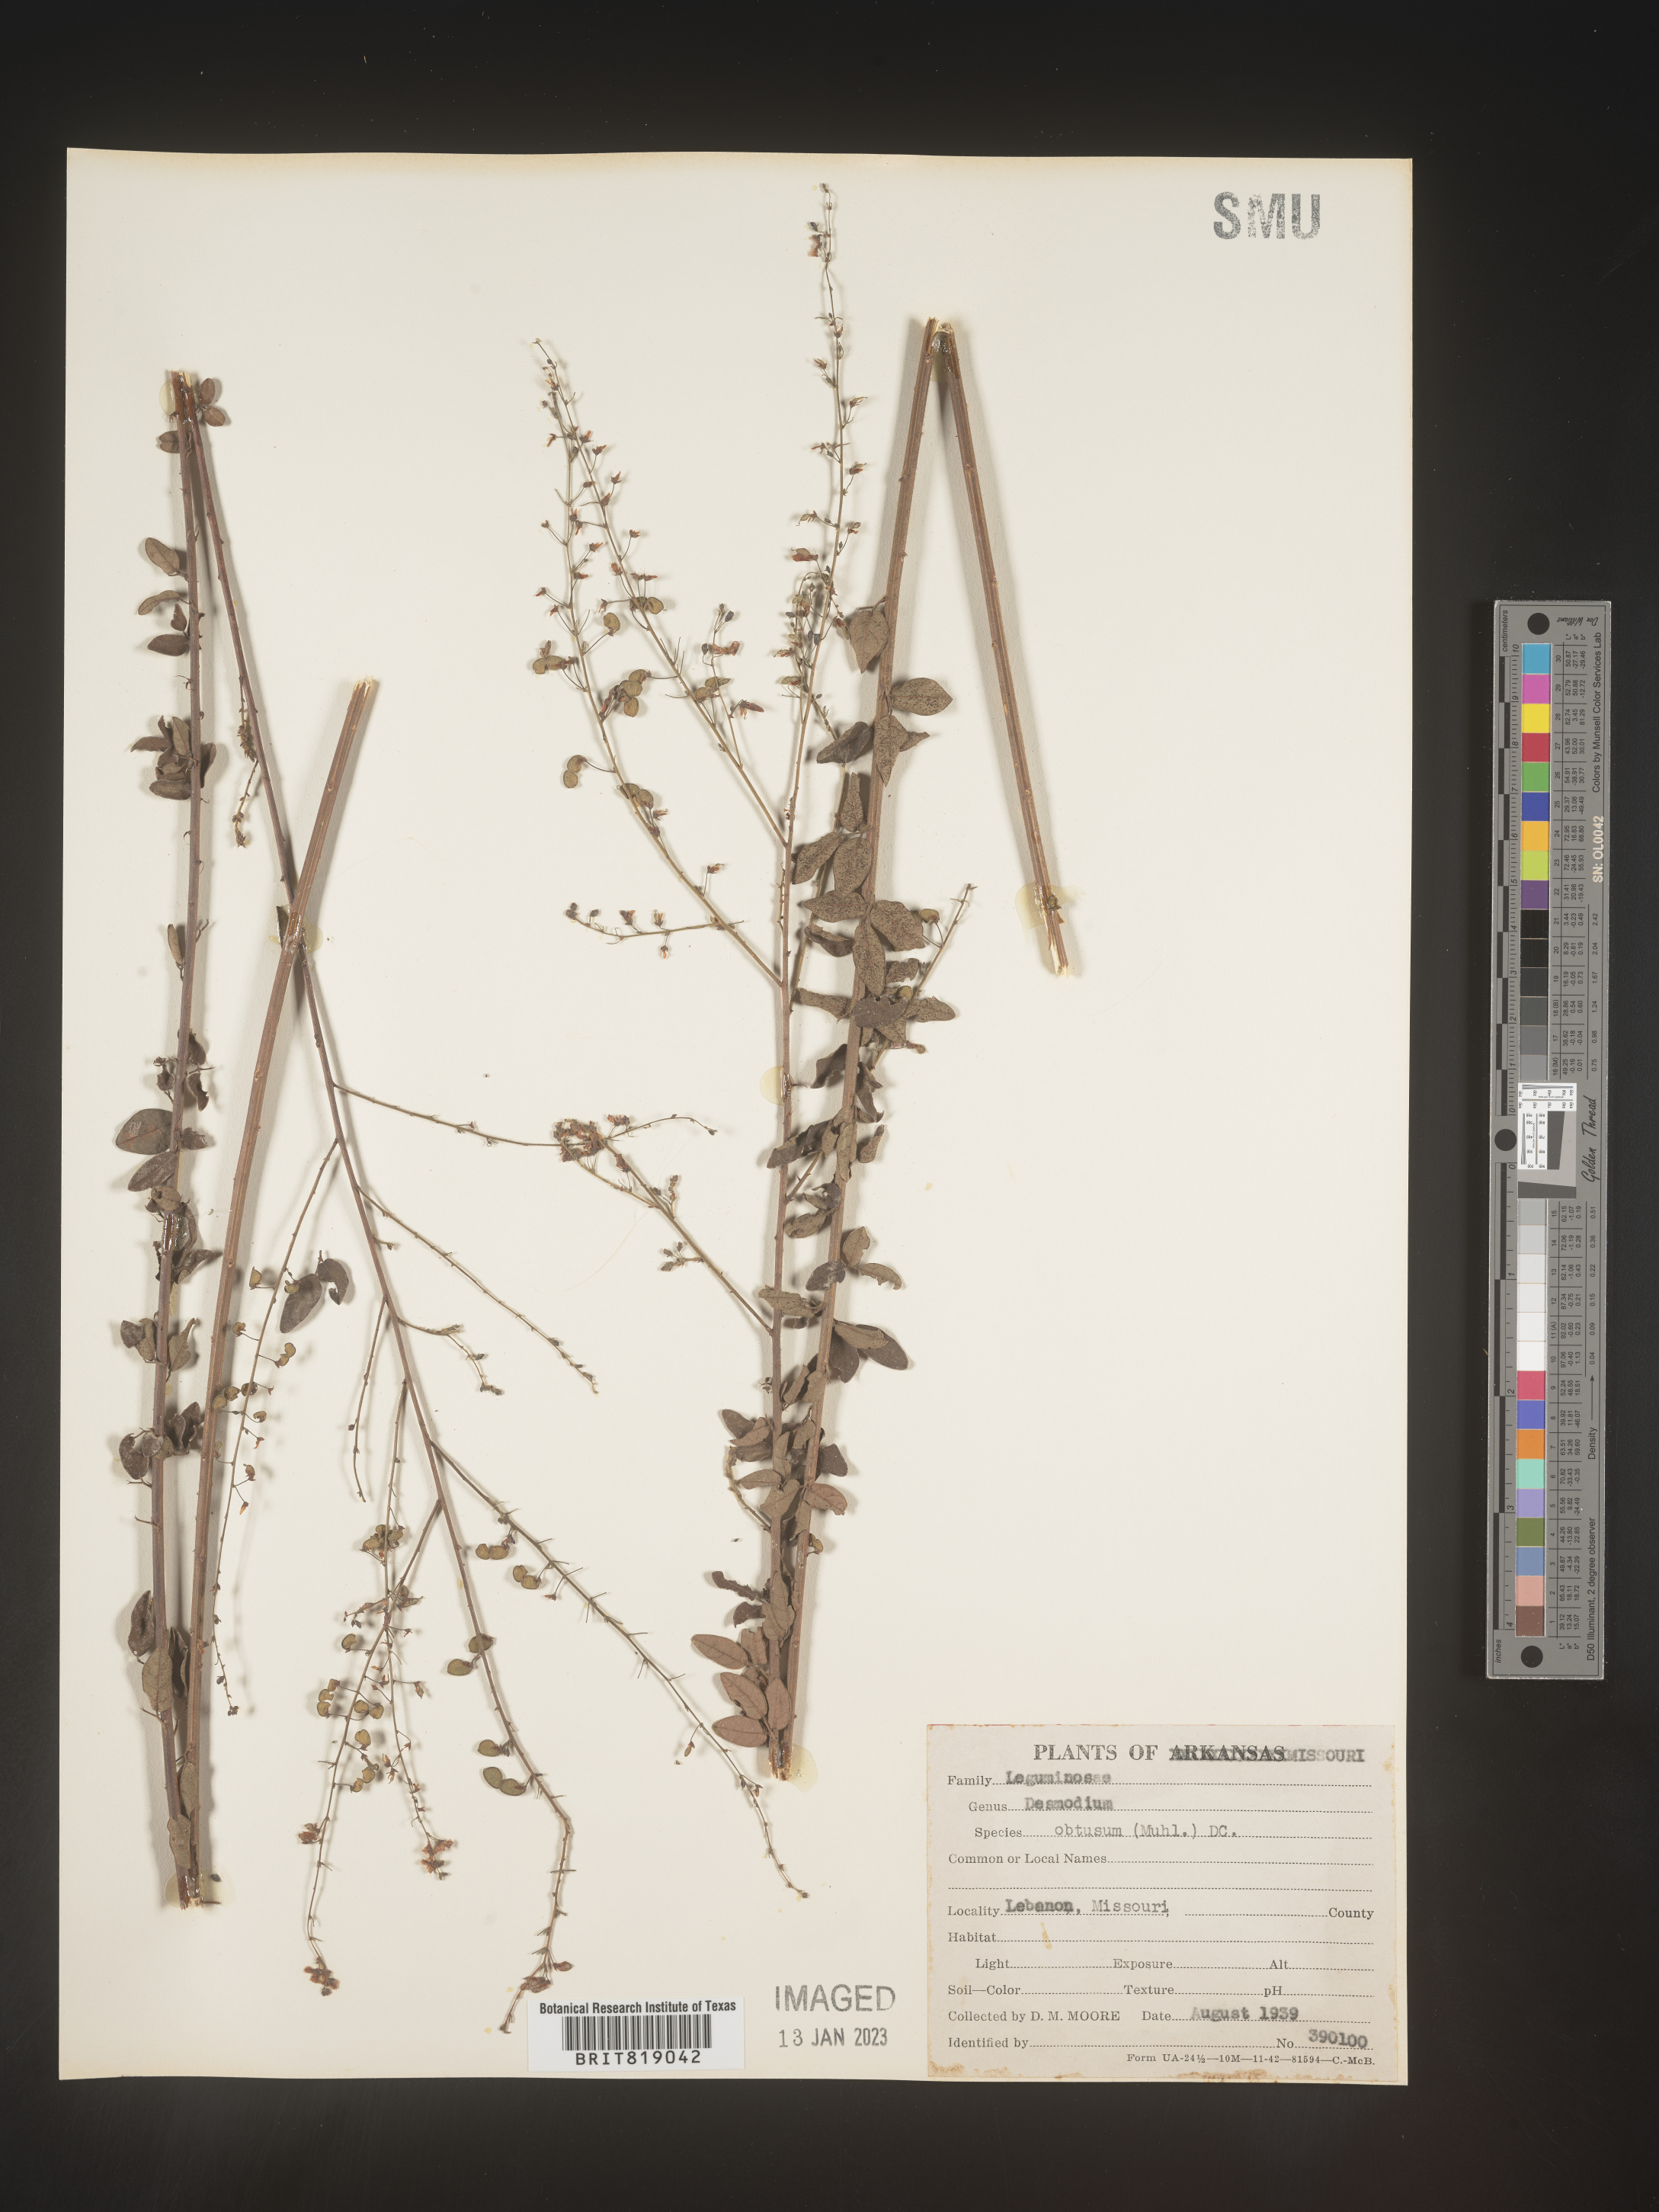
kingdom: Plantae
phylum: Tracheophyta
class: Magnoliopsida
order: Fabales
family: Fabaceae
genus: Desmodium
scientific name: Desmodium obtusum
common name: Stiff tick trefoil
